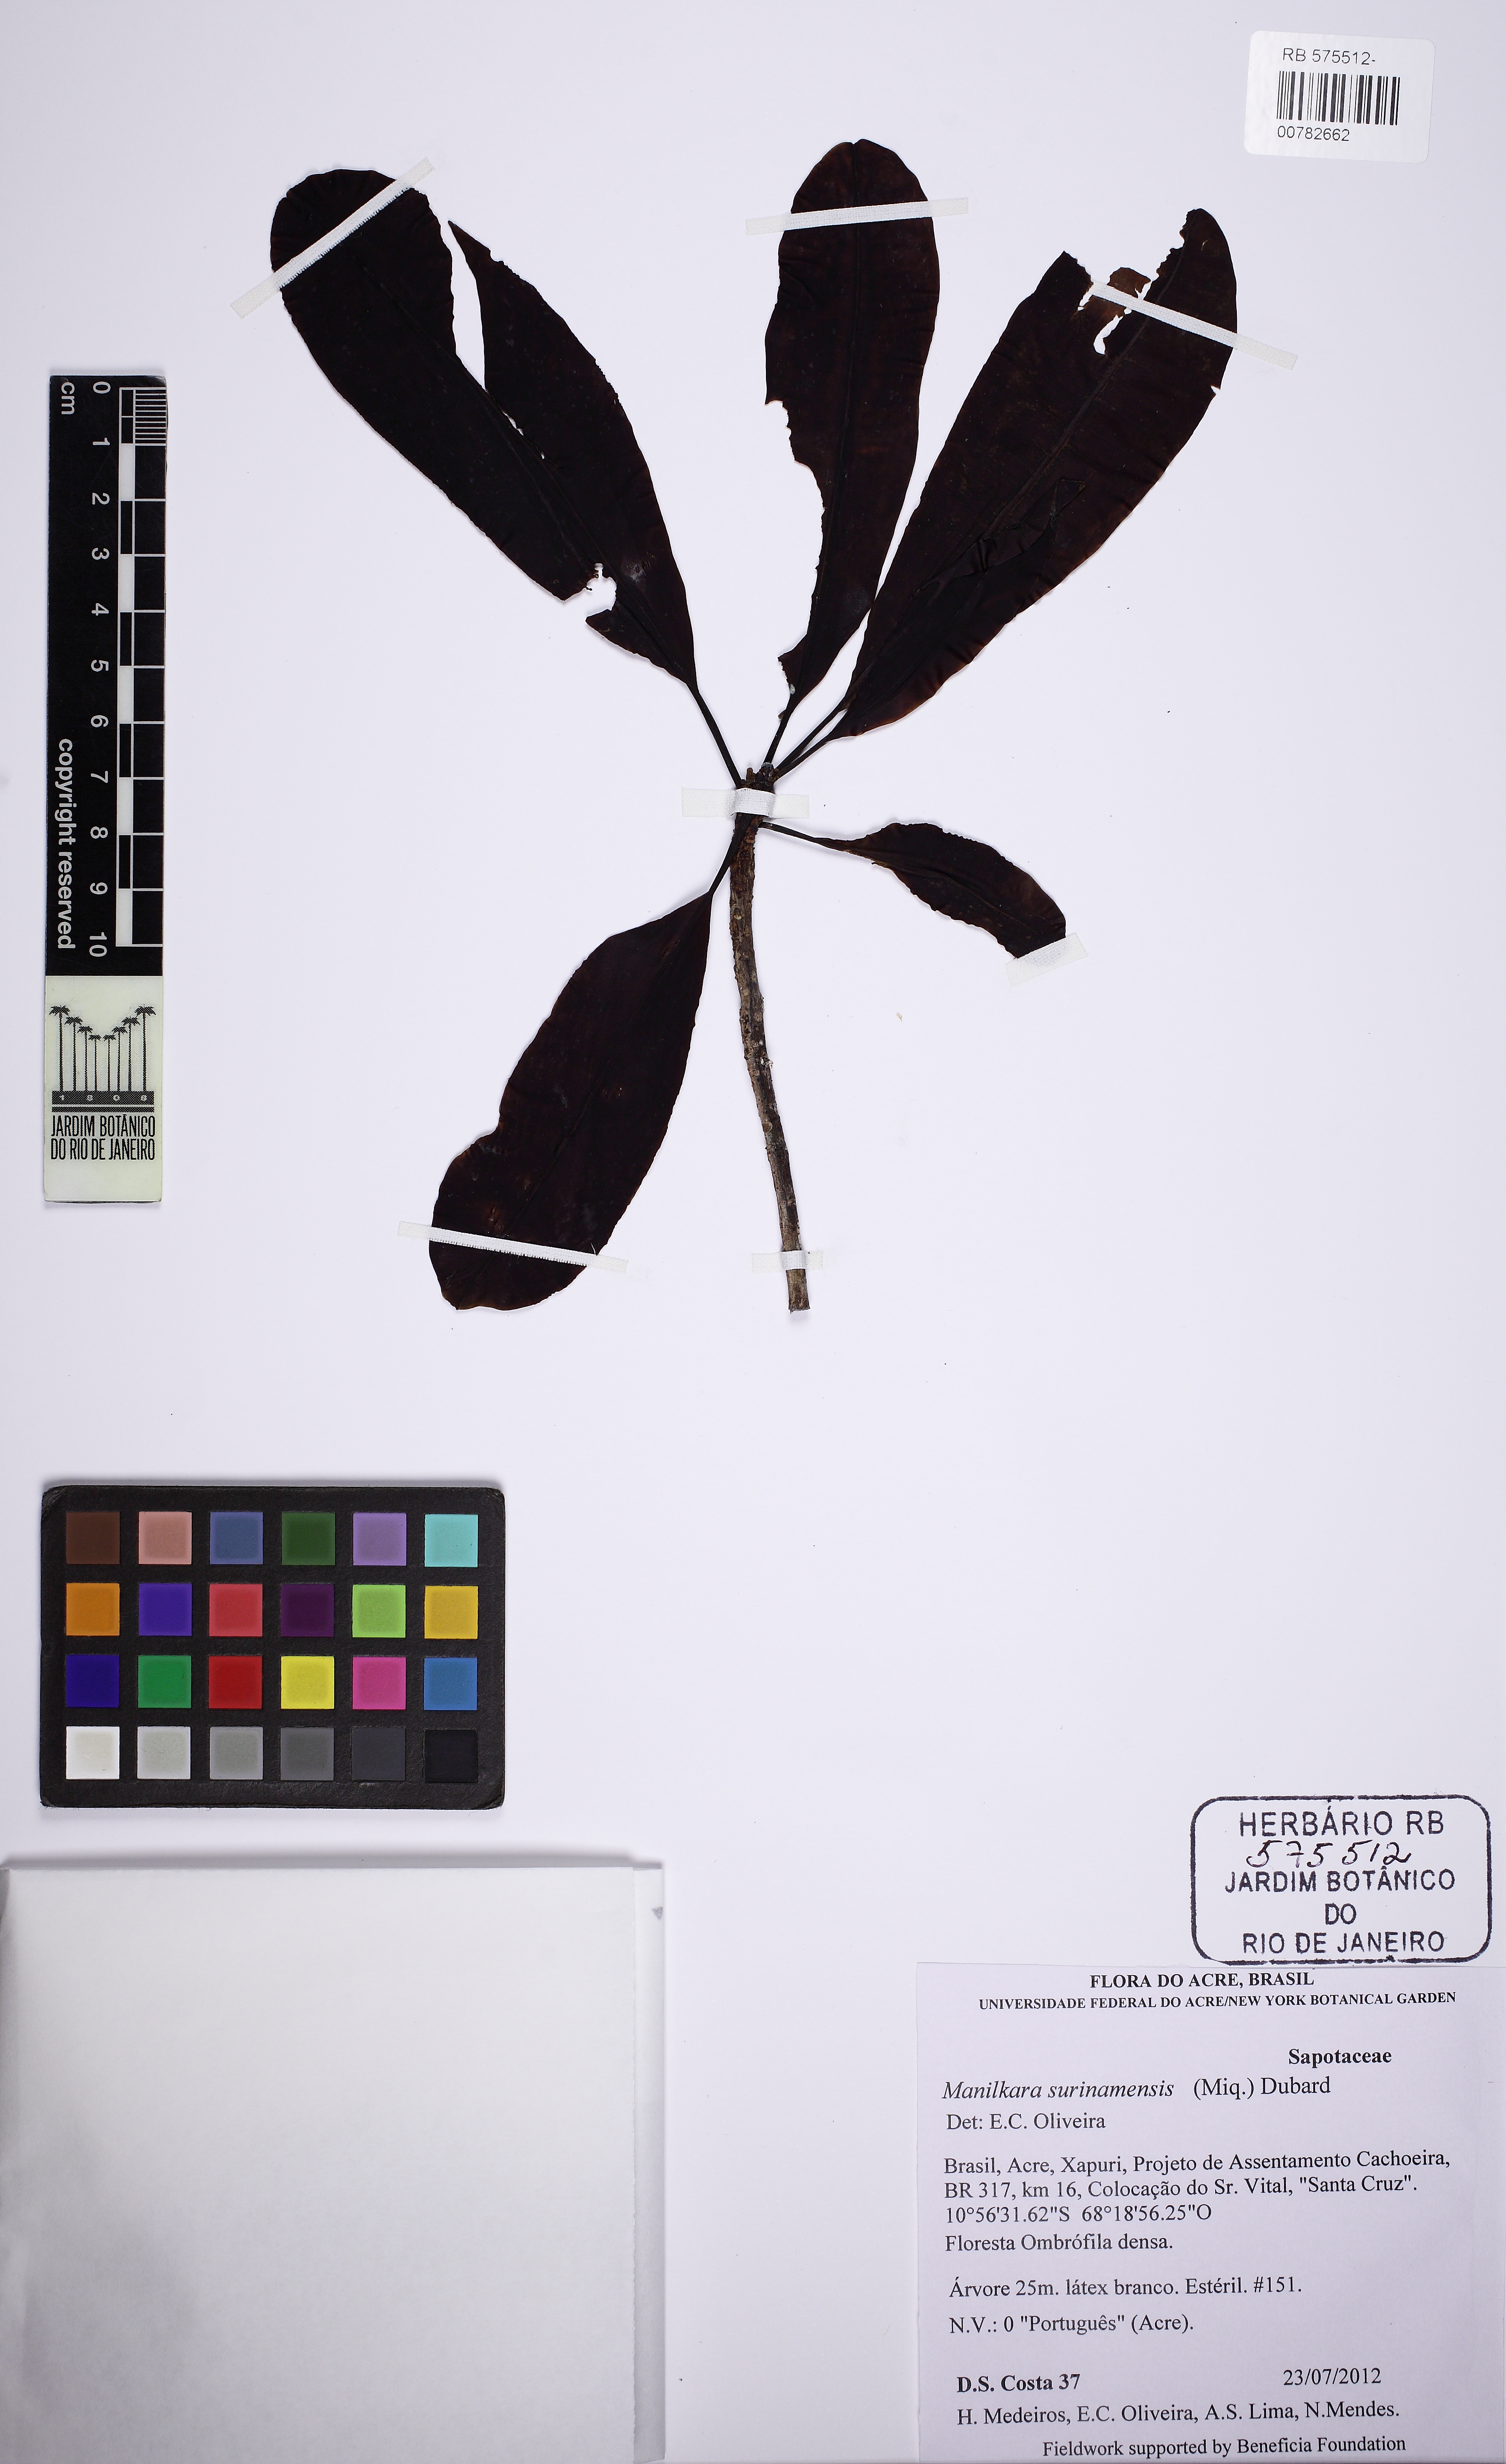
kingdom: Plantae
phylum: Tracheophyta
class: Magnoliopsida
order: Ericales
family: Sapotaceae
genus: Manilkara
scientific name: Manilkara bidentata
